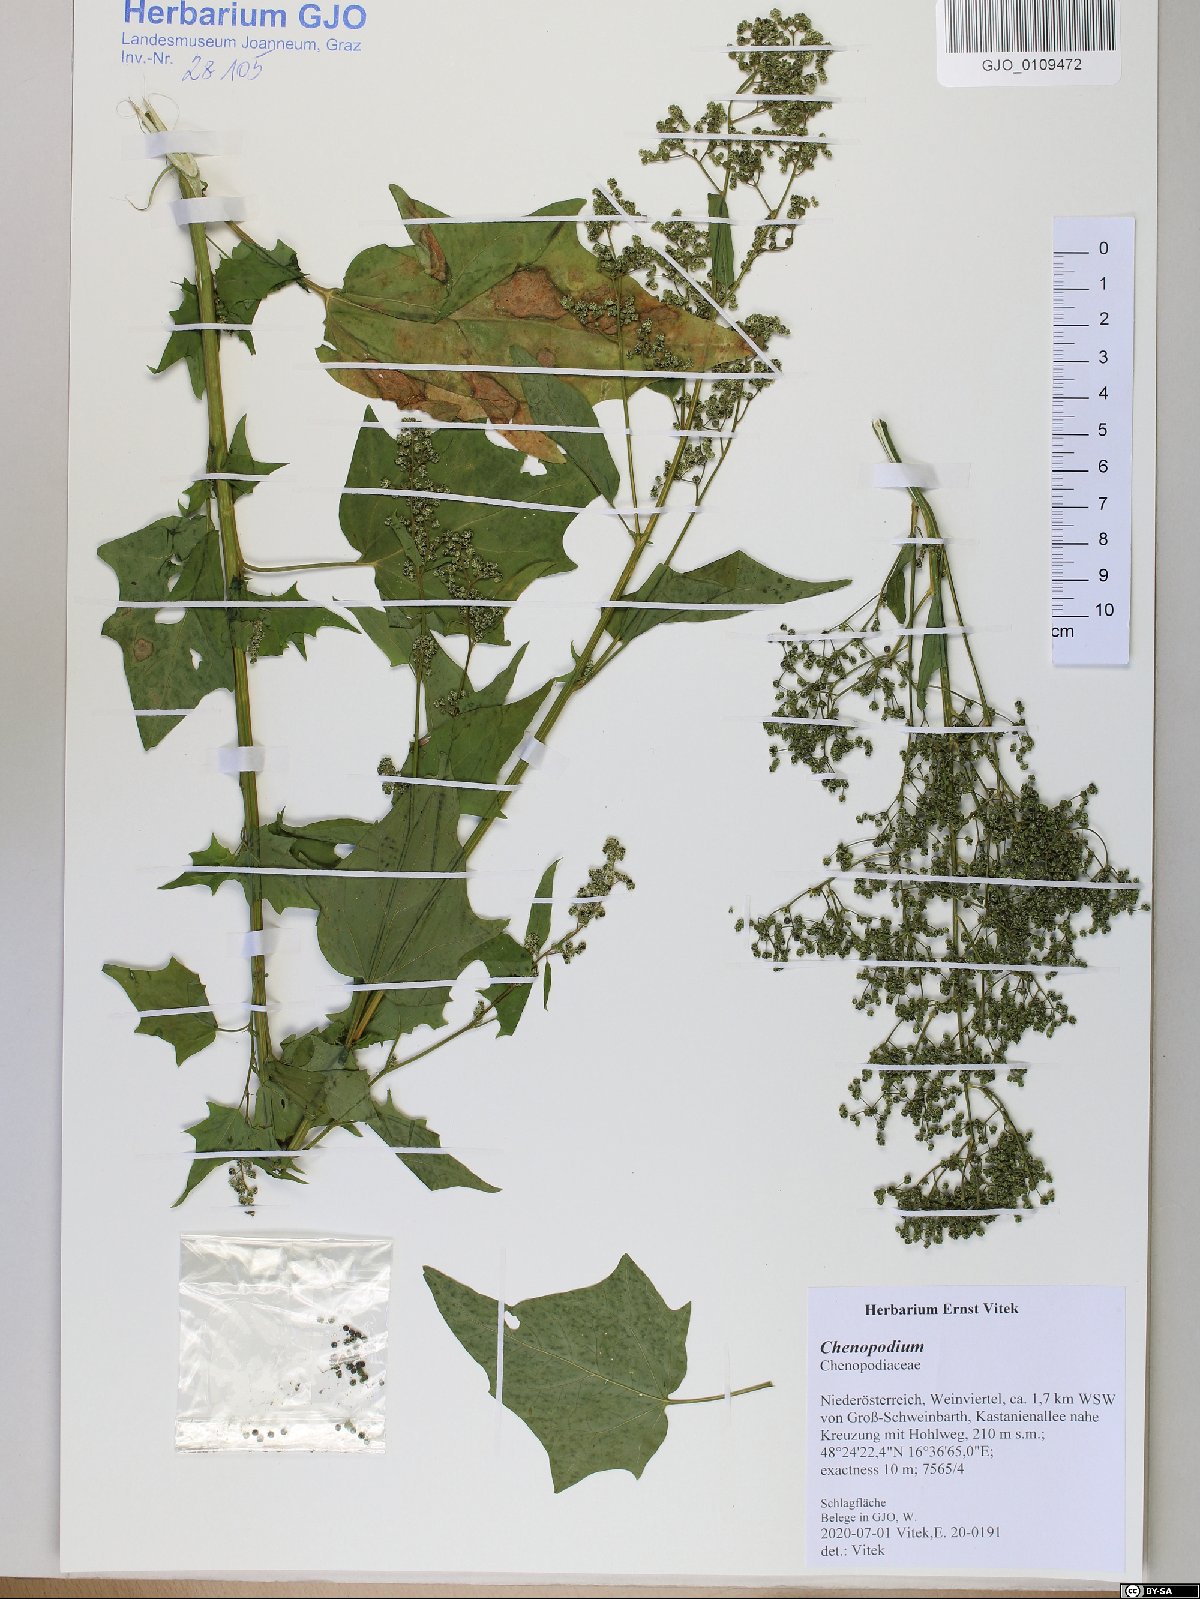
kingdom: Plantae
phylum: Tracheophyta
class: Magnoliopsida
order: Caryophyllales
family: Amaranthaceae
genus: Chenopodium
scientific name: Chenopodium
